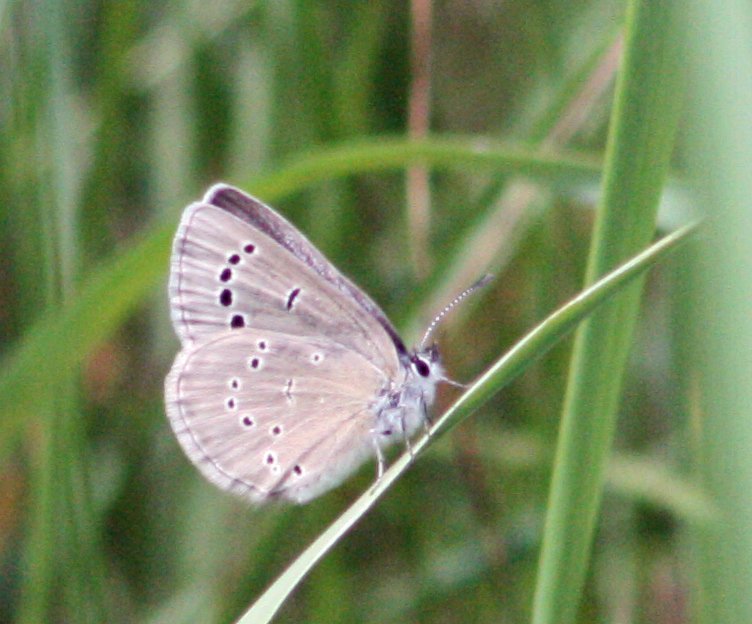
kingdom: Animalia
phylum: Arthropoda
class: Insecta
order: Lepidoptera
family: Lycaenidae
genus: Glaucopsyche
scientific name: Glaucopsyche lygdamus
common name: Silvery Blue
